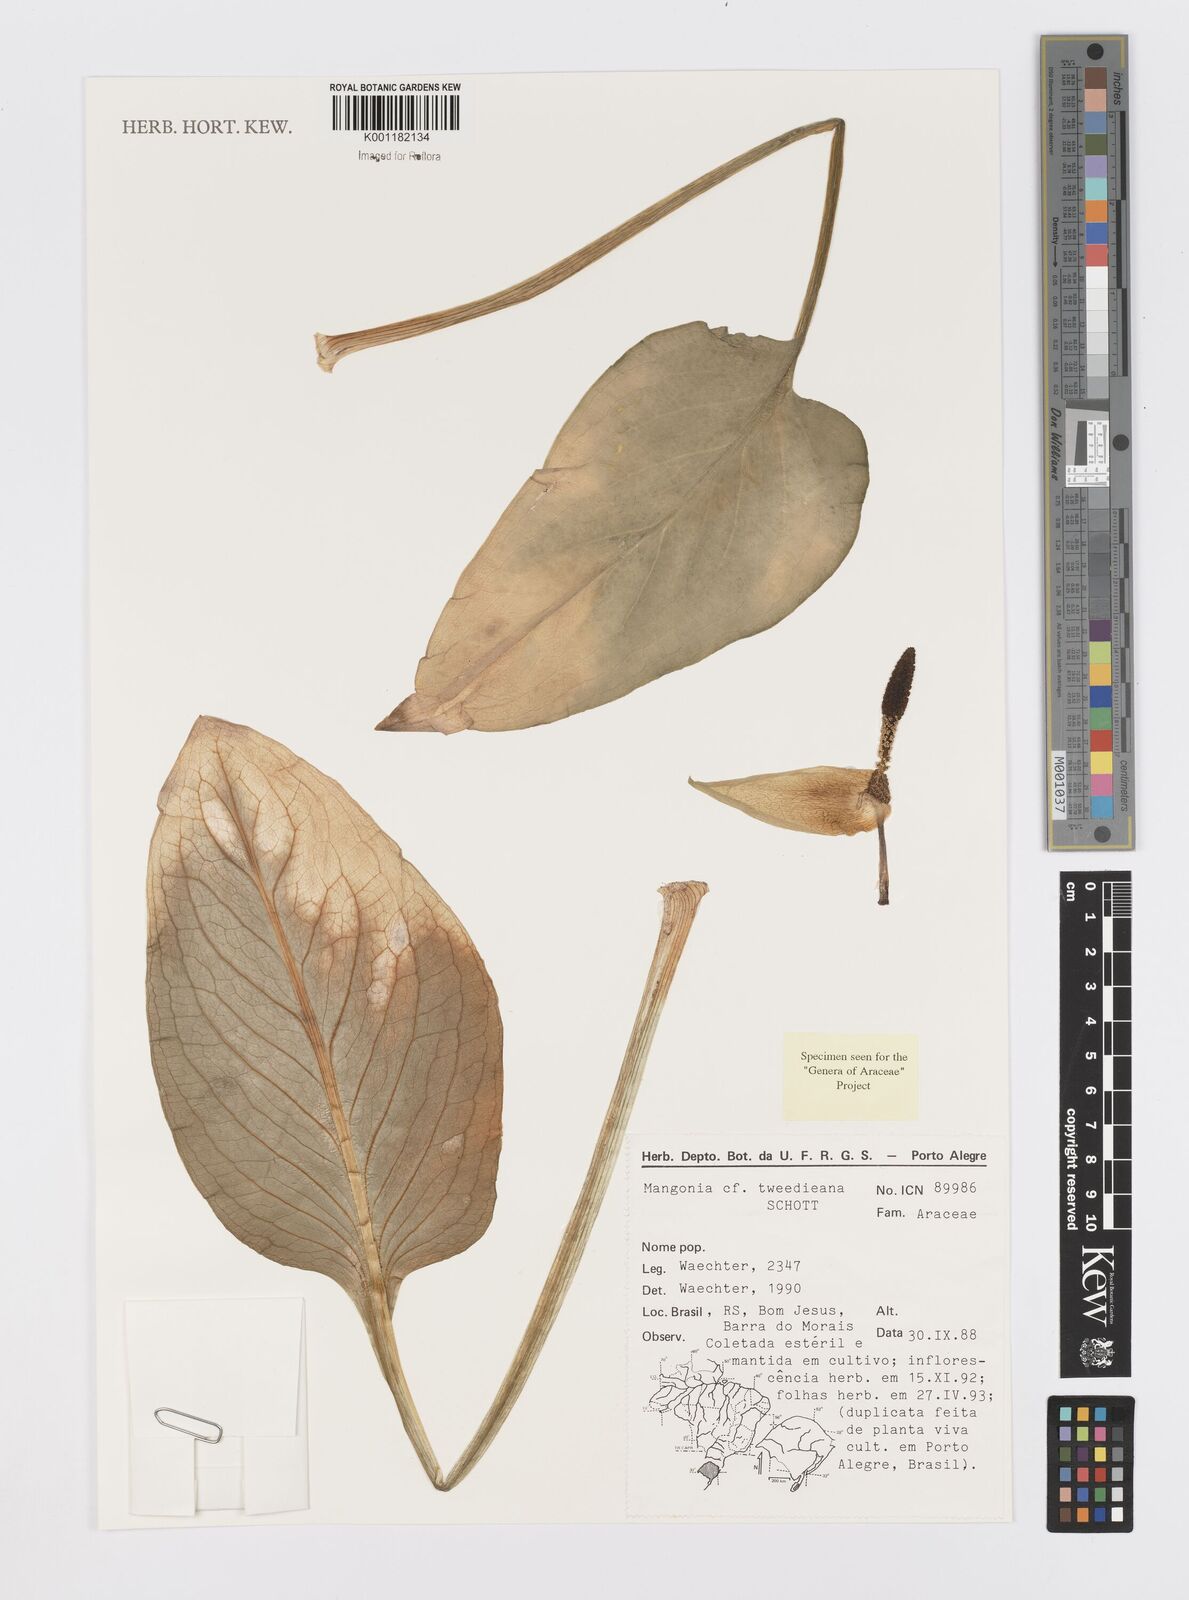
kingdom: Plantae
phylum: Tracheophyta
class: Liliopsida
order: Alismatales
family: Araceae
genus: Dieffenbachia
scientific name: Dieffenbachia
